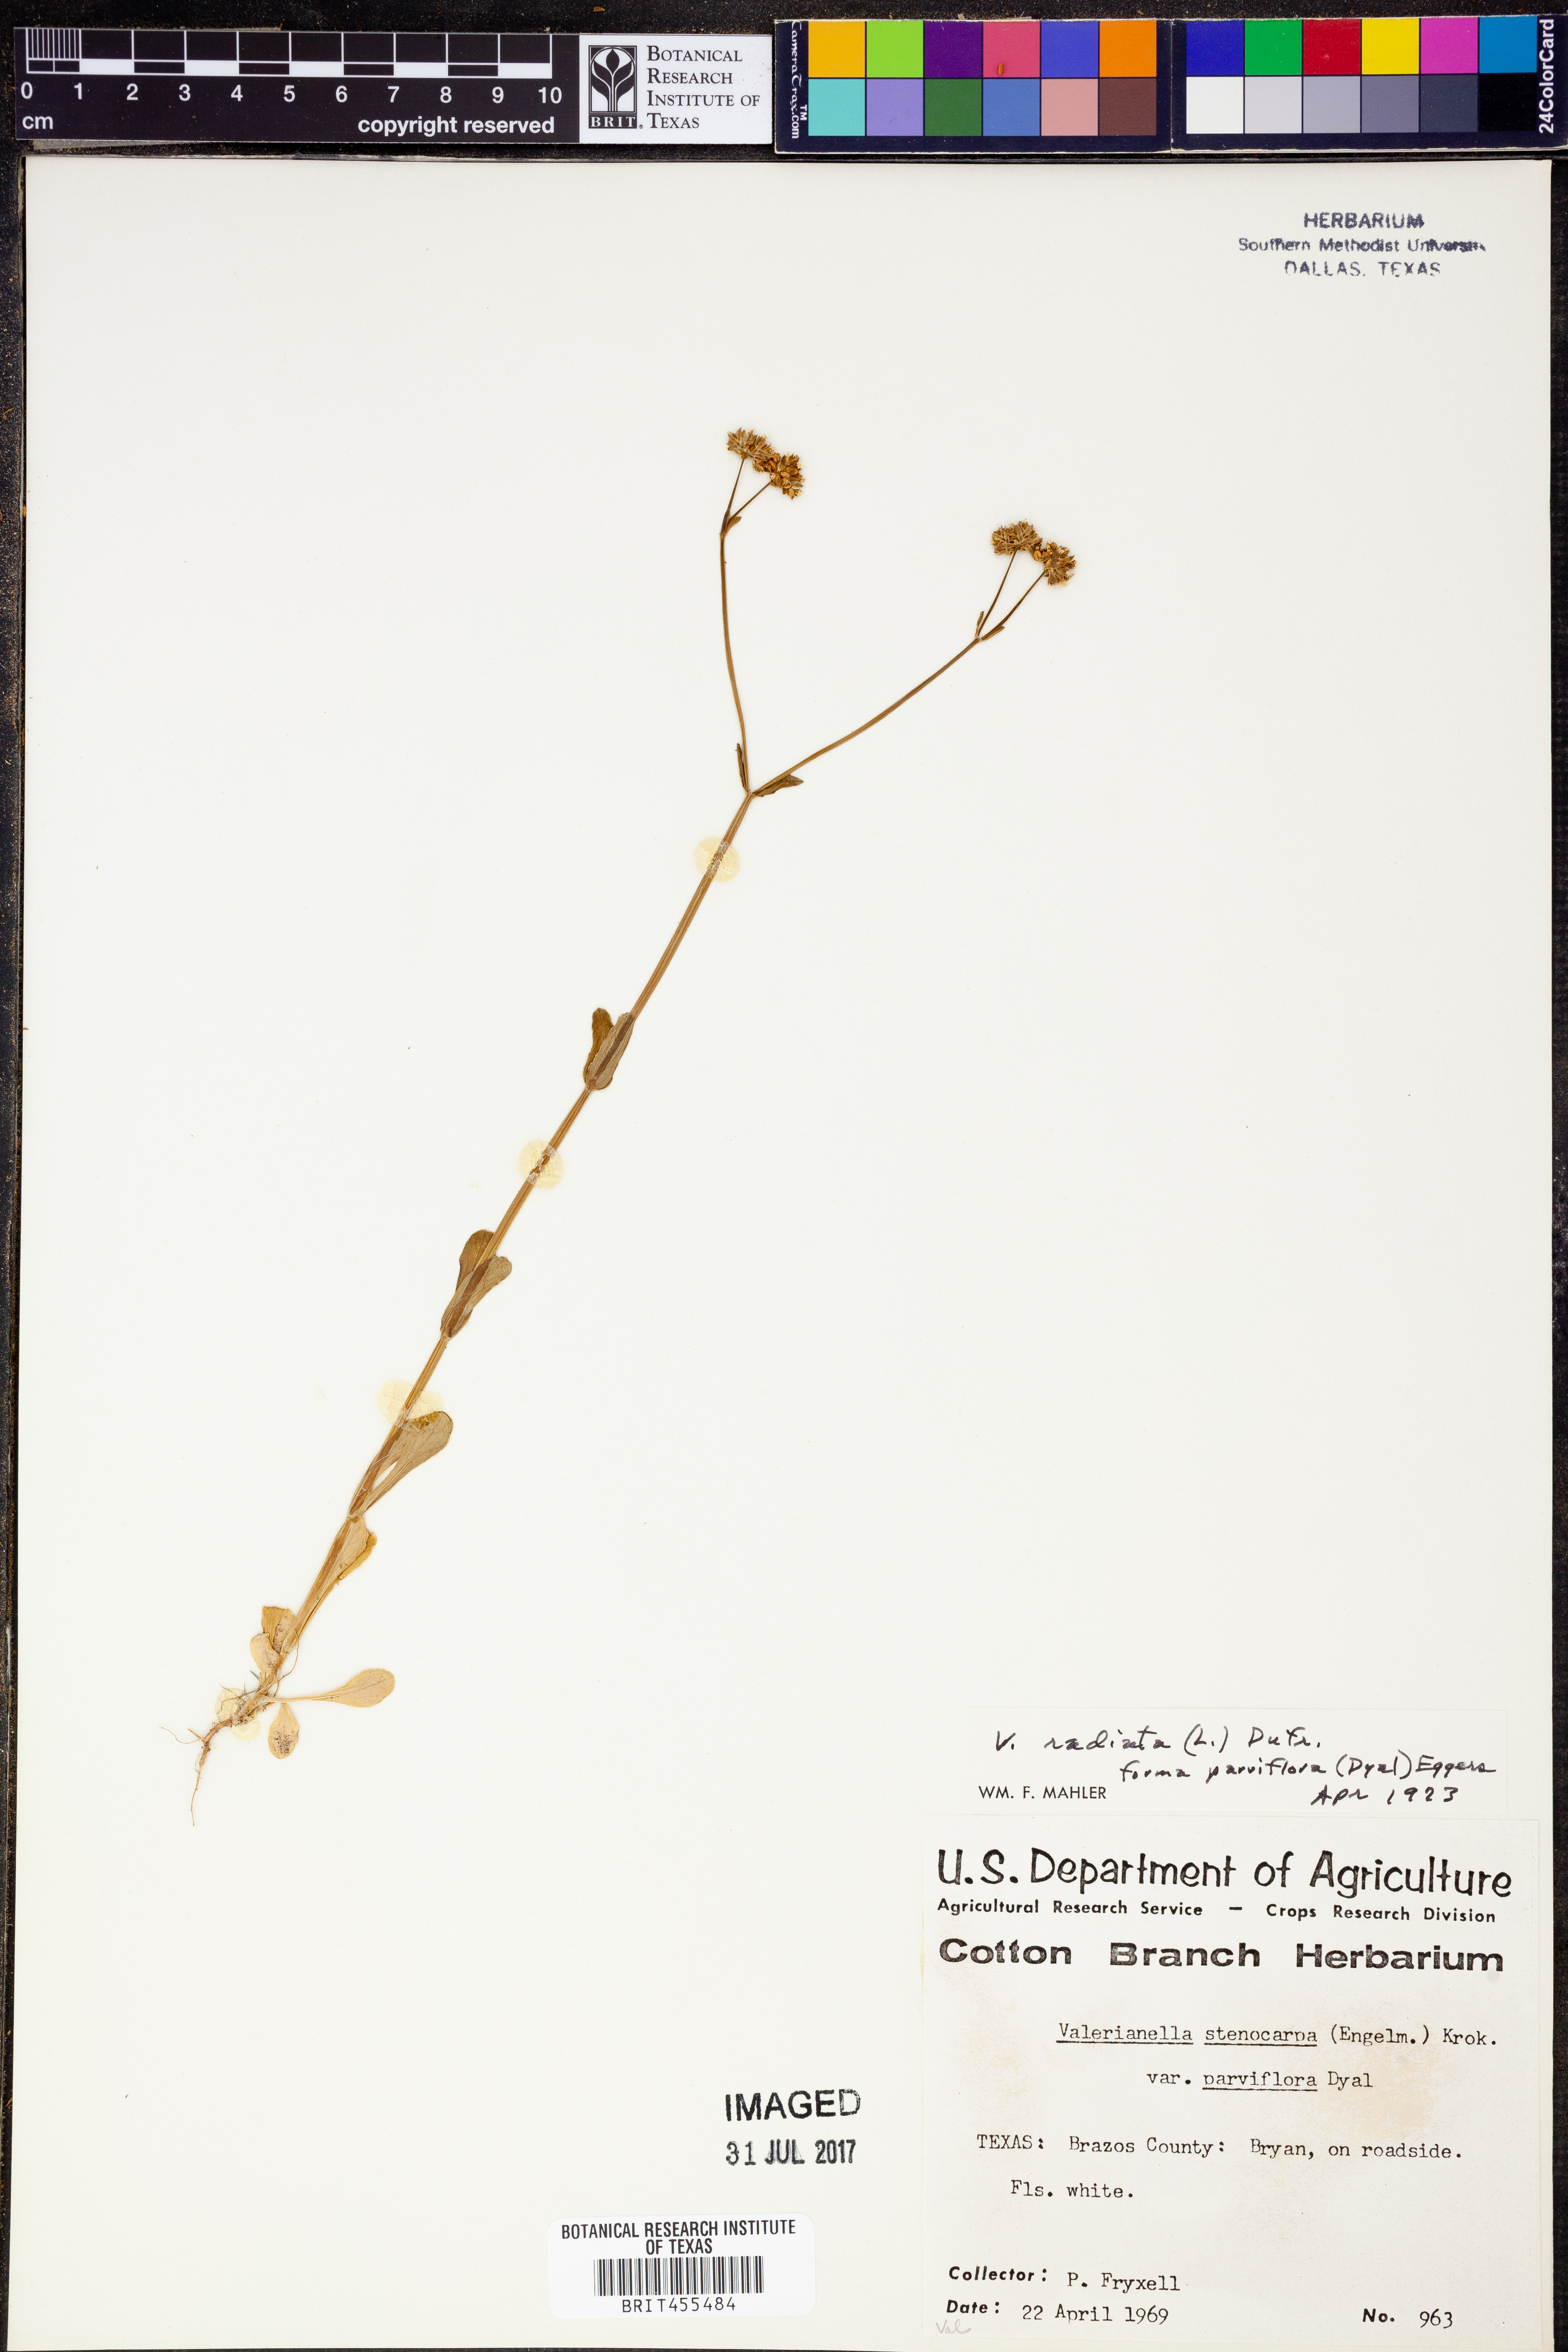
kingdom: Plantae
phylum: Tracheophyta
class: Magnoliopsida
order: Dipsacales
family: Caprifoliaceae
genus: Valerianella
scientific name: Valerianella radiata
